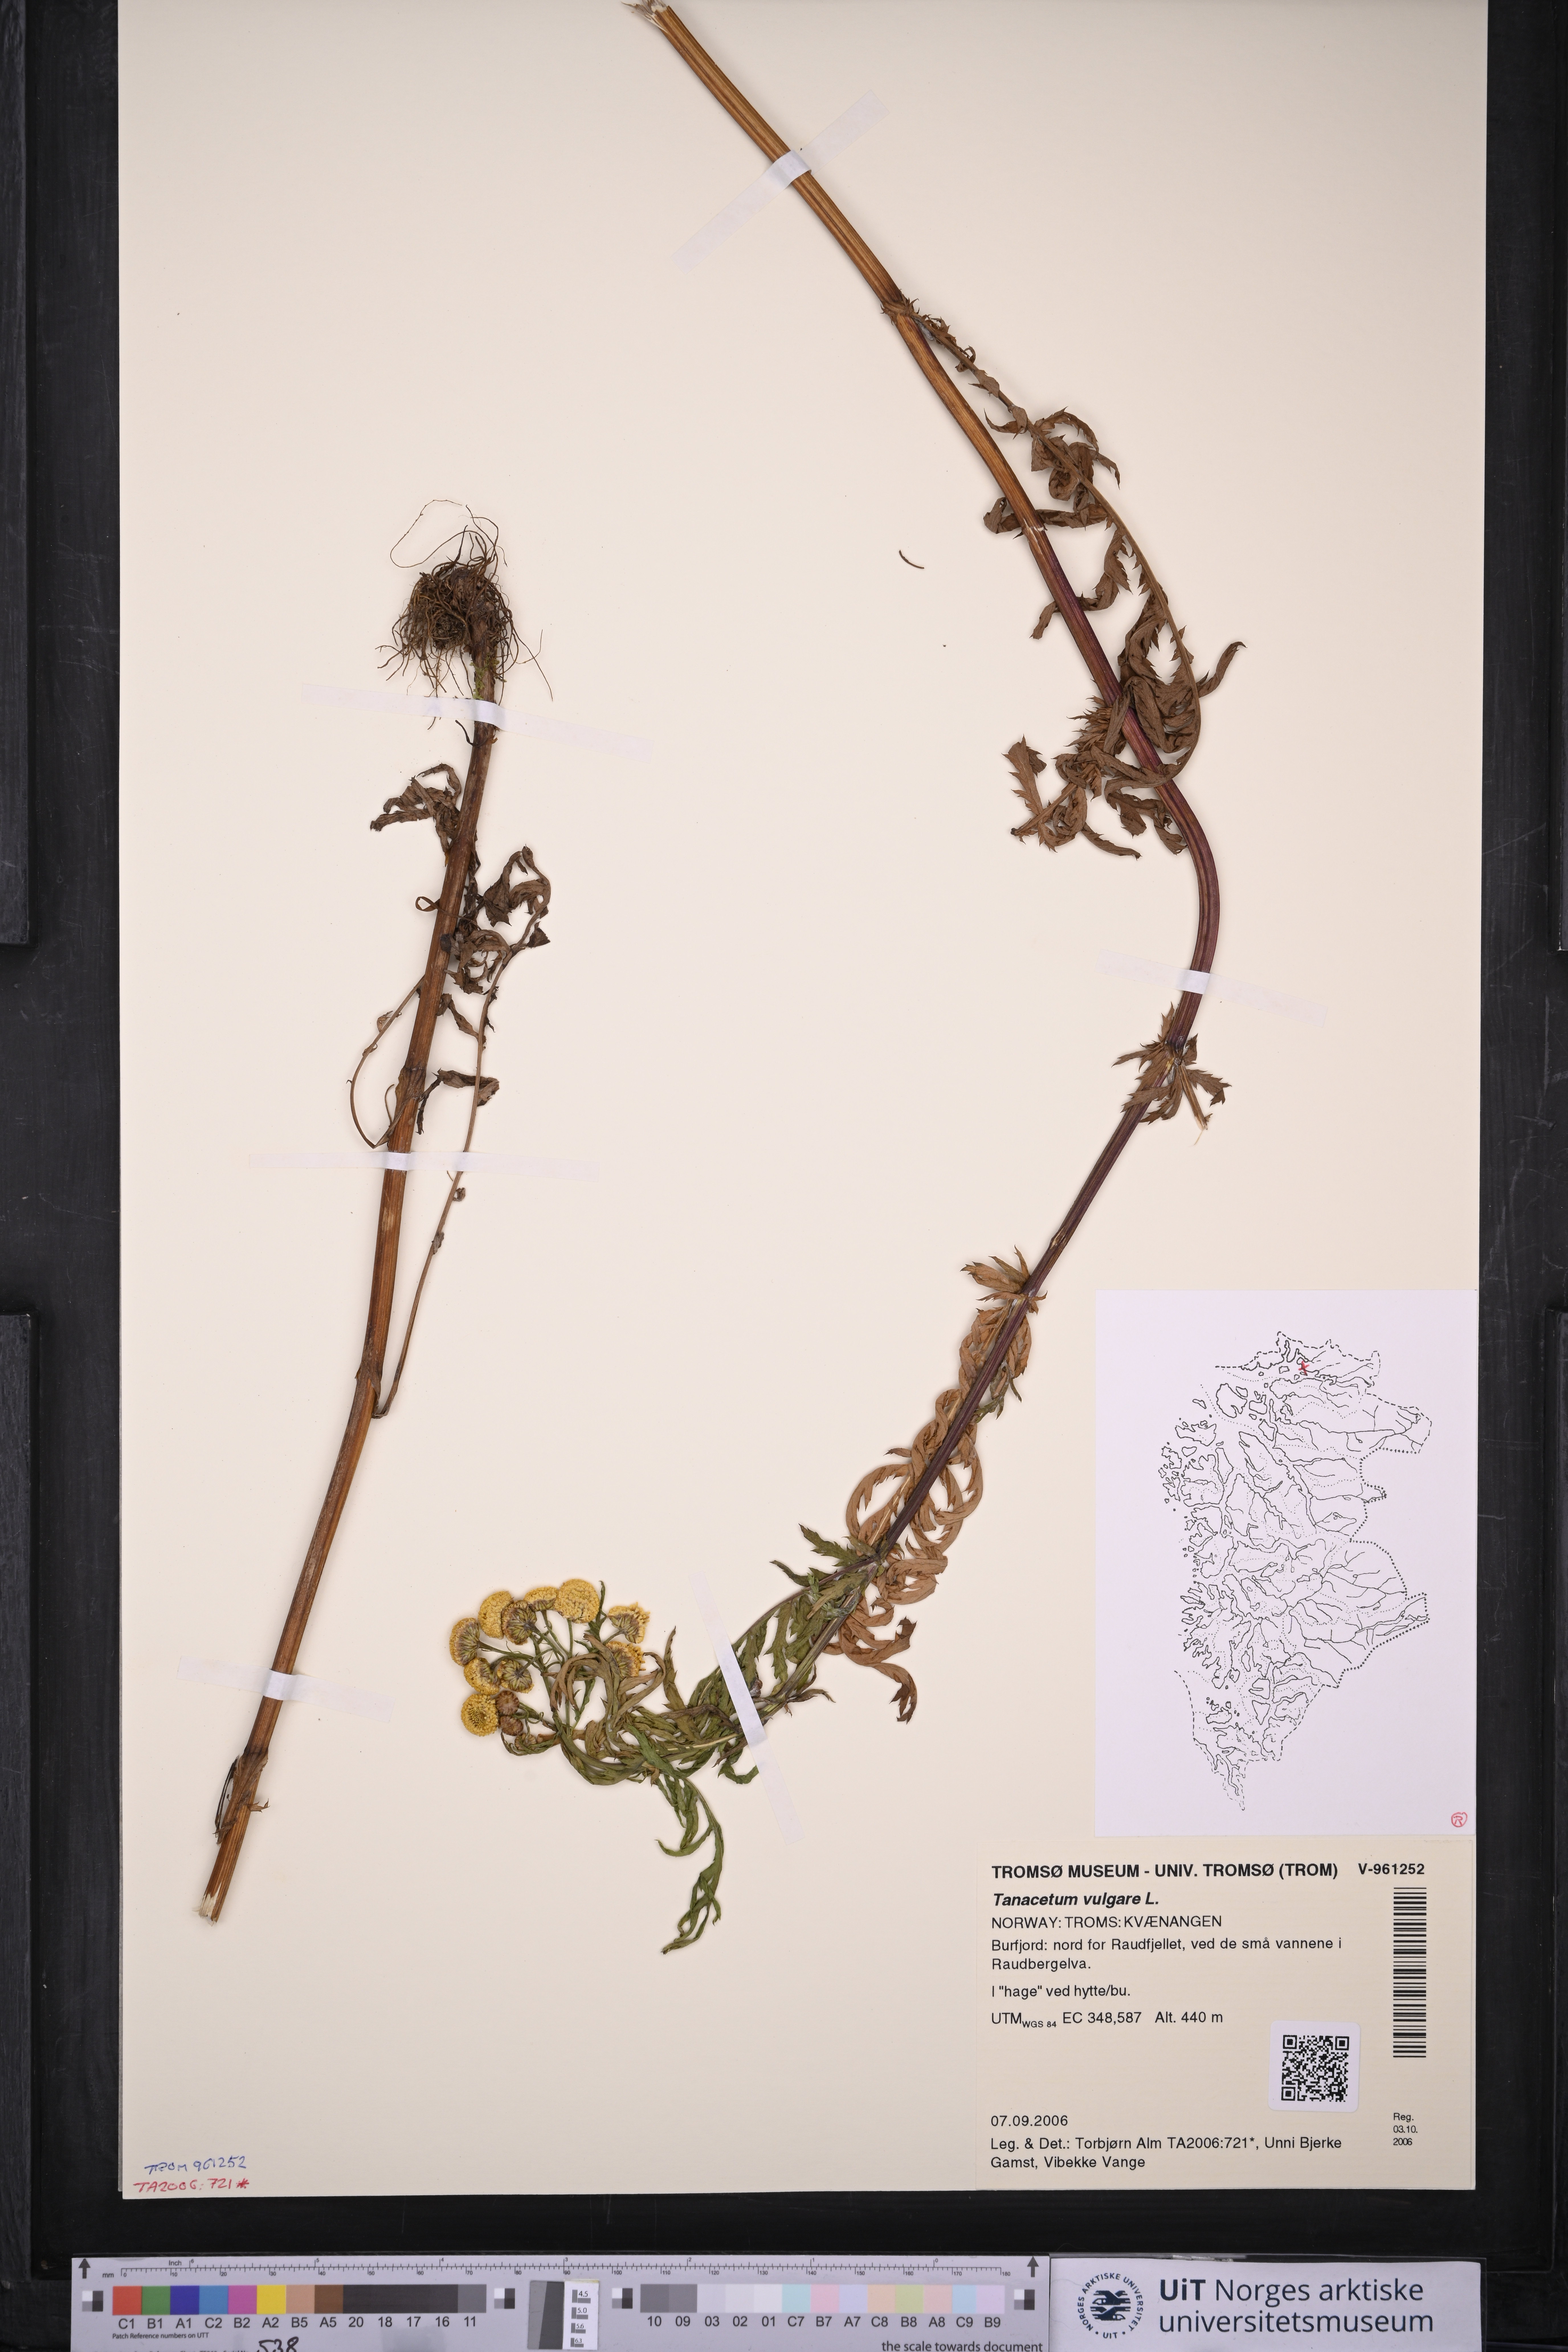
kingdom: Plantae
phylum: Tracheophyta
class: Magnoliopsida
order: Asterales
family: Asteraceae
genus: Tanacetum
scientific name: Tanacetum vulgare
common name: Common tansy
